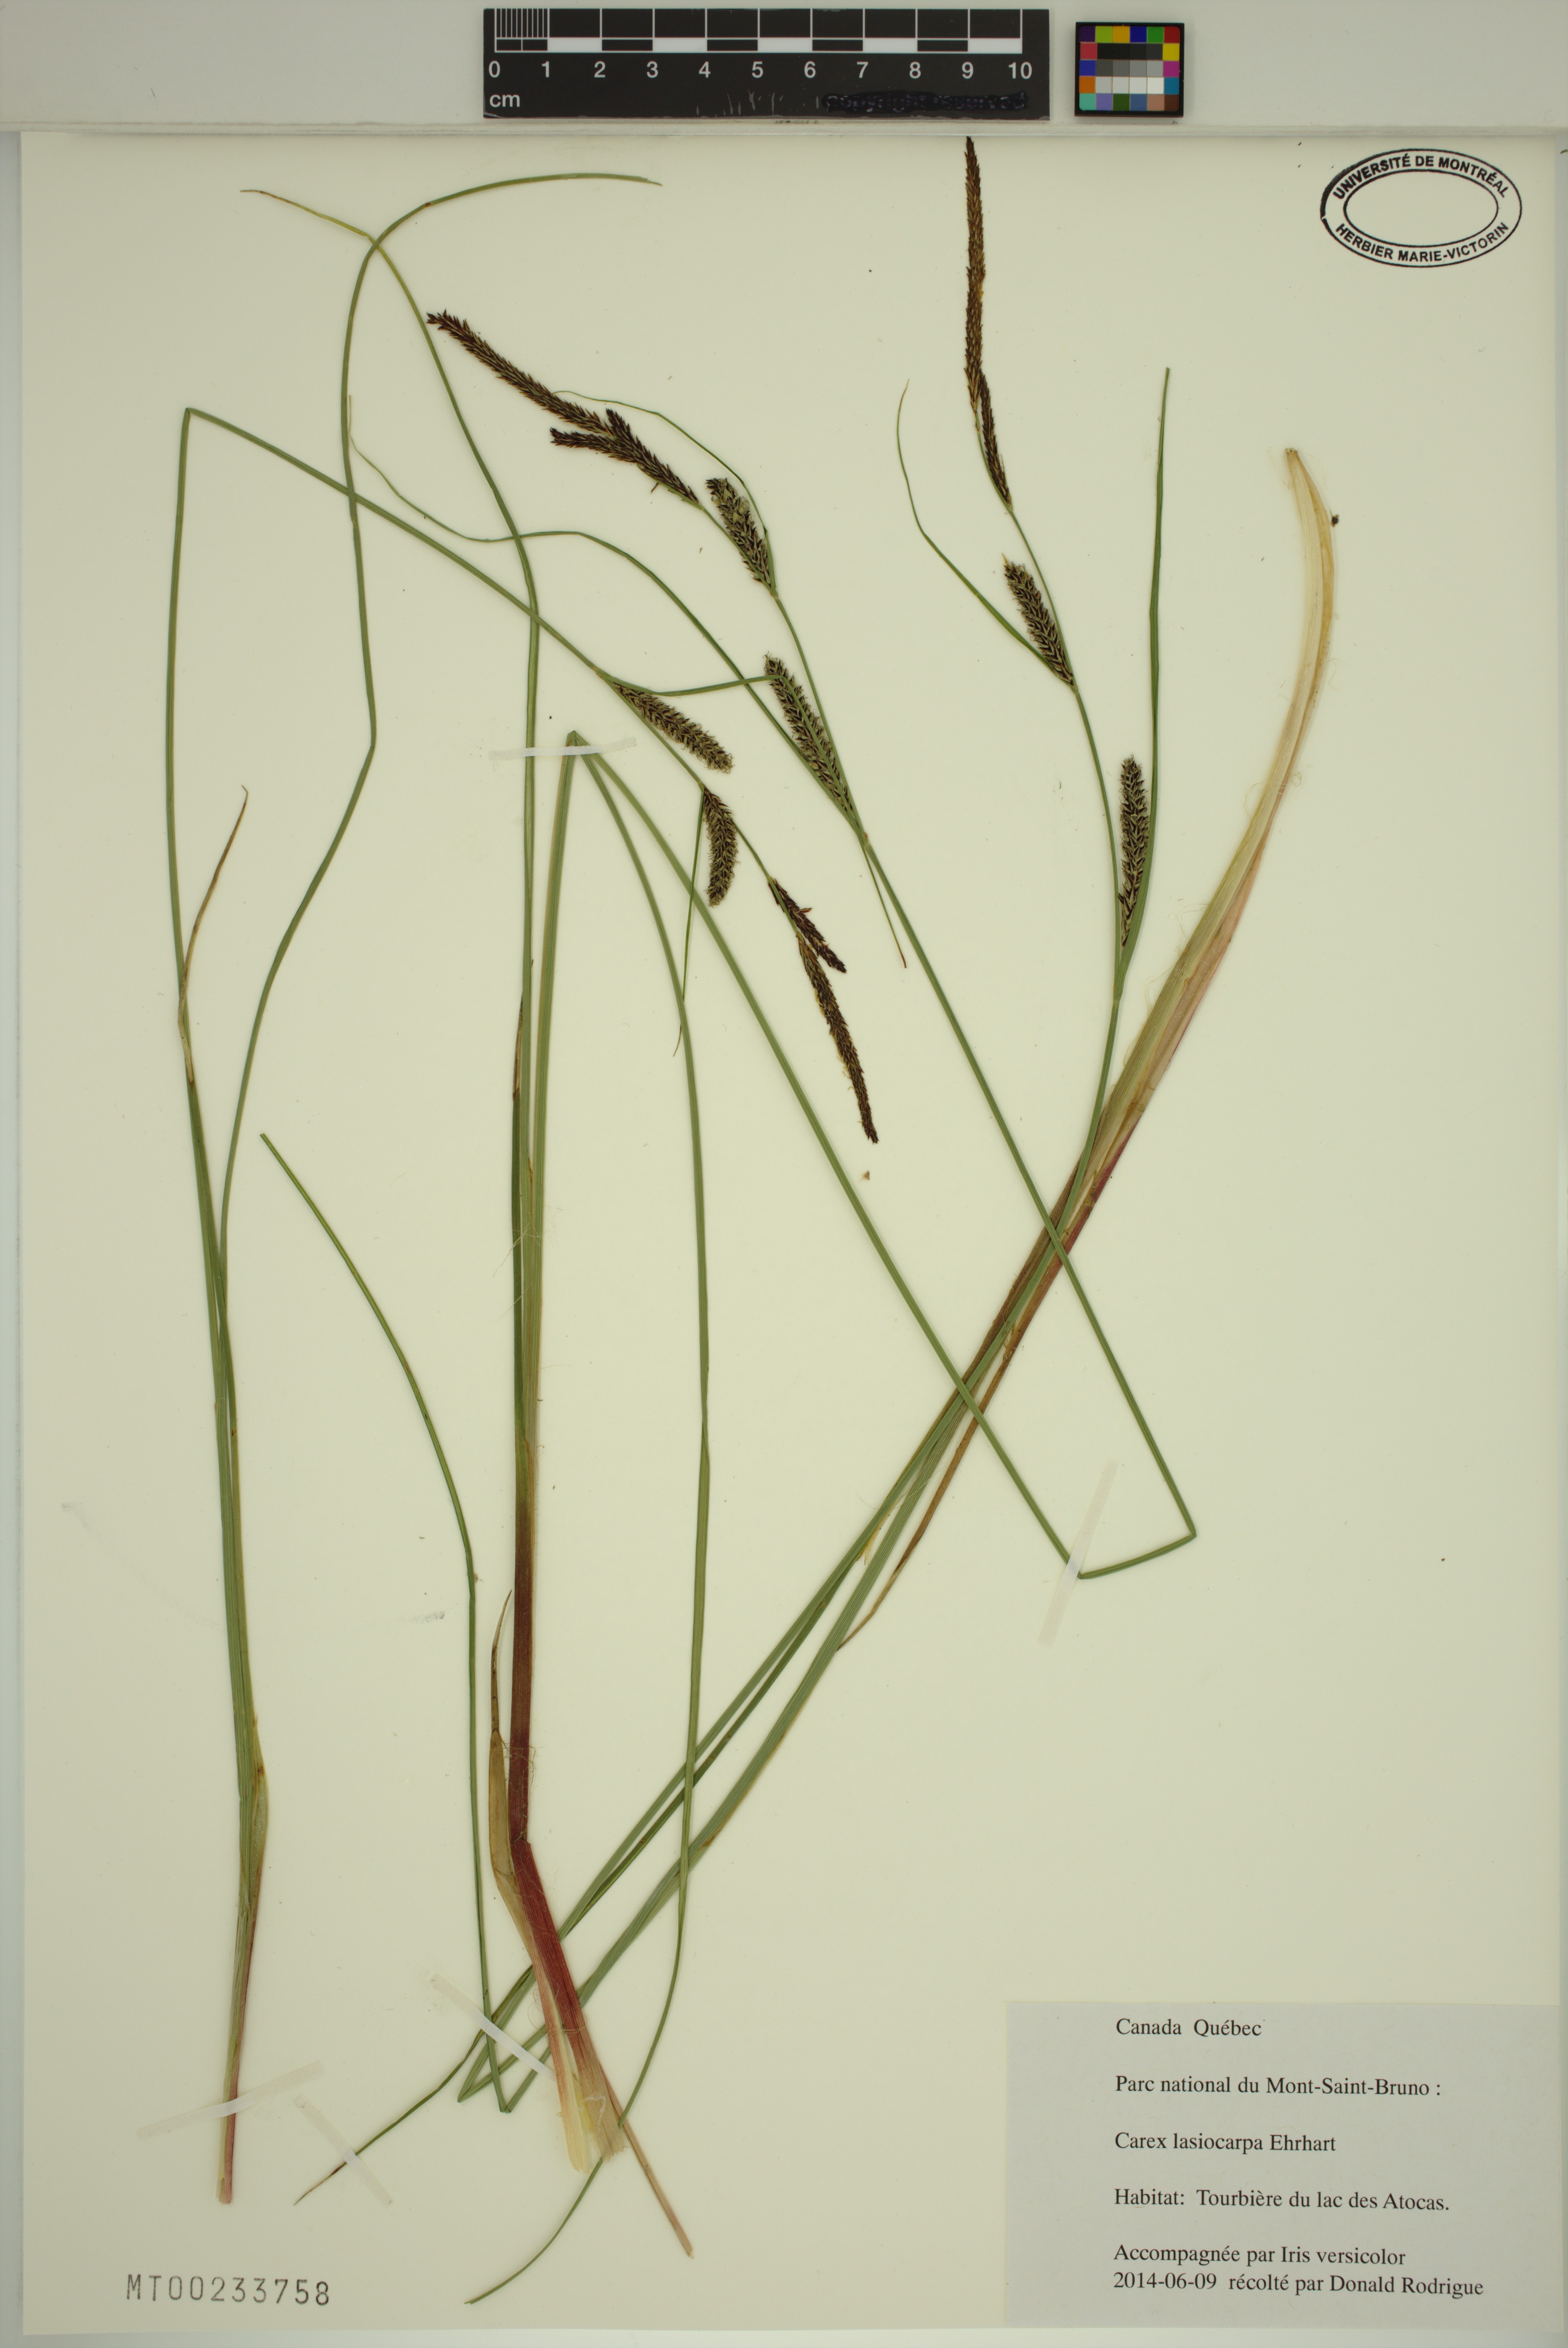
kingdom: Plantae
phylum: Tracheophyta
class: Liliopsida
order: Poales
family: Cyperaceae
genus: Carex
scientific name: Carex lasiocarpa
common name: Slender sedge
